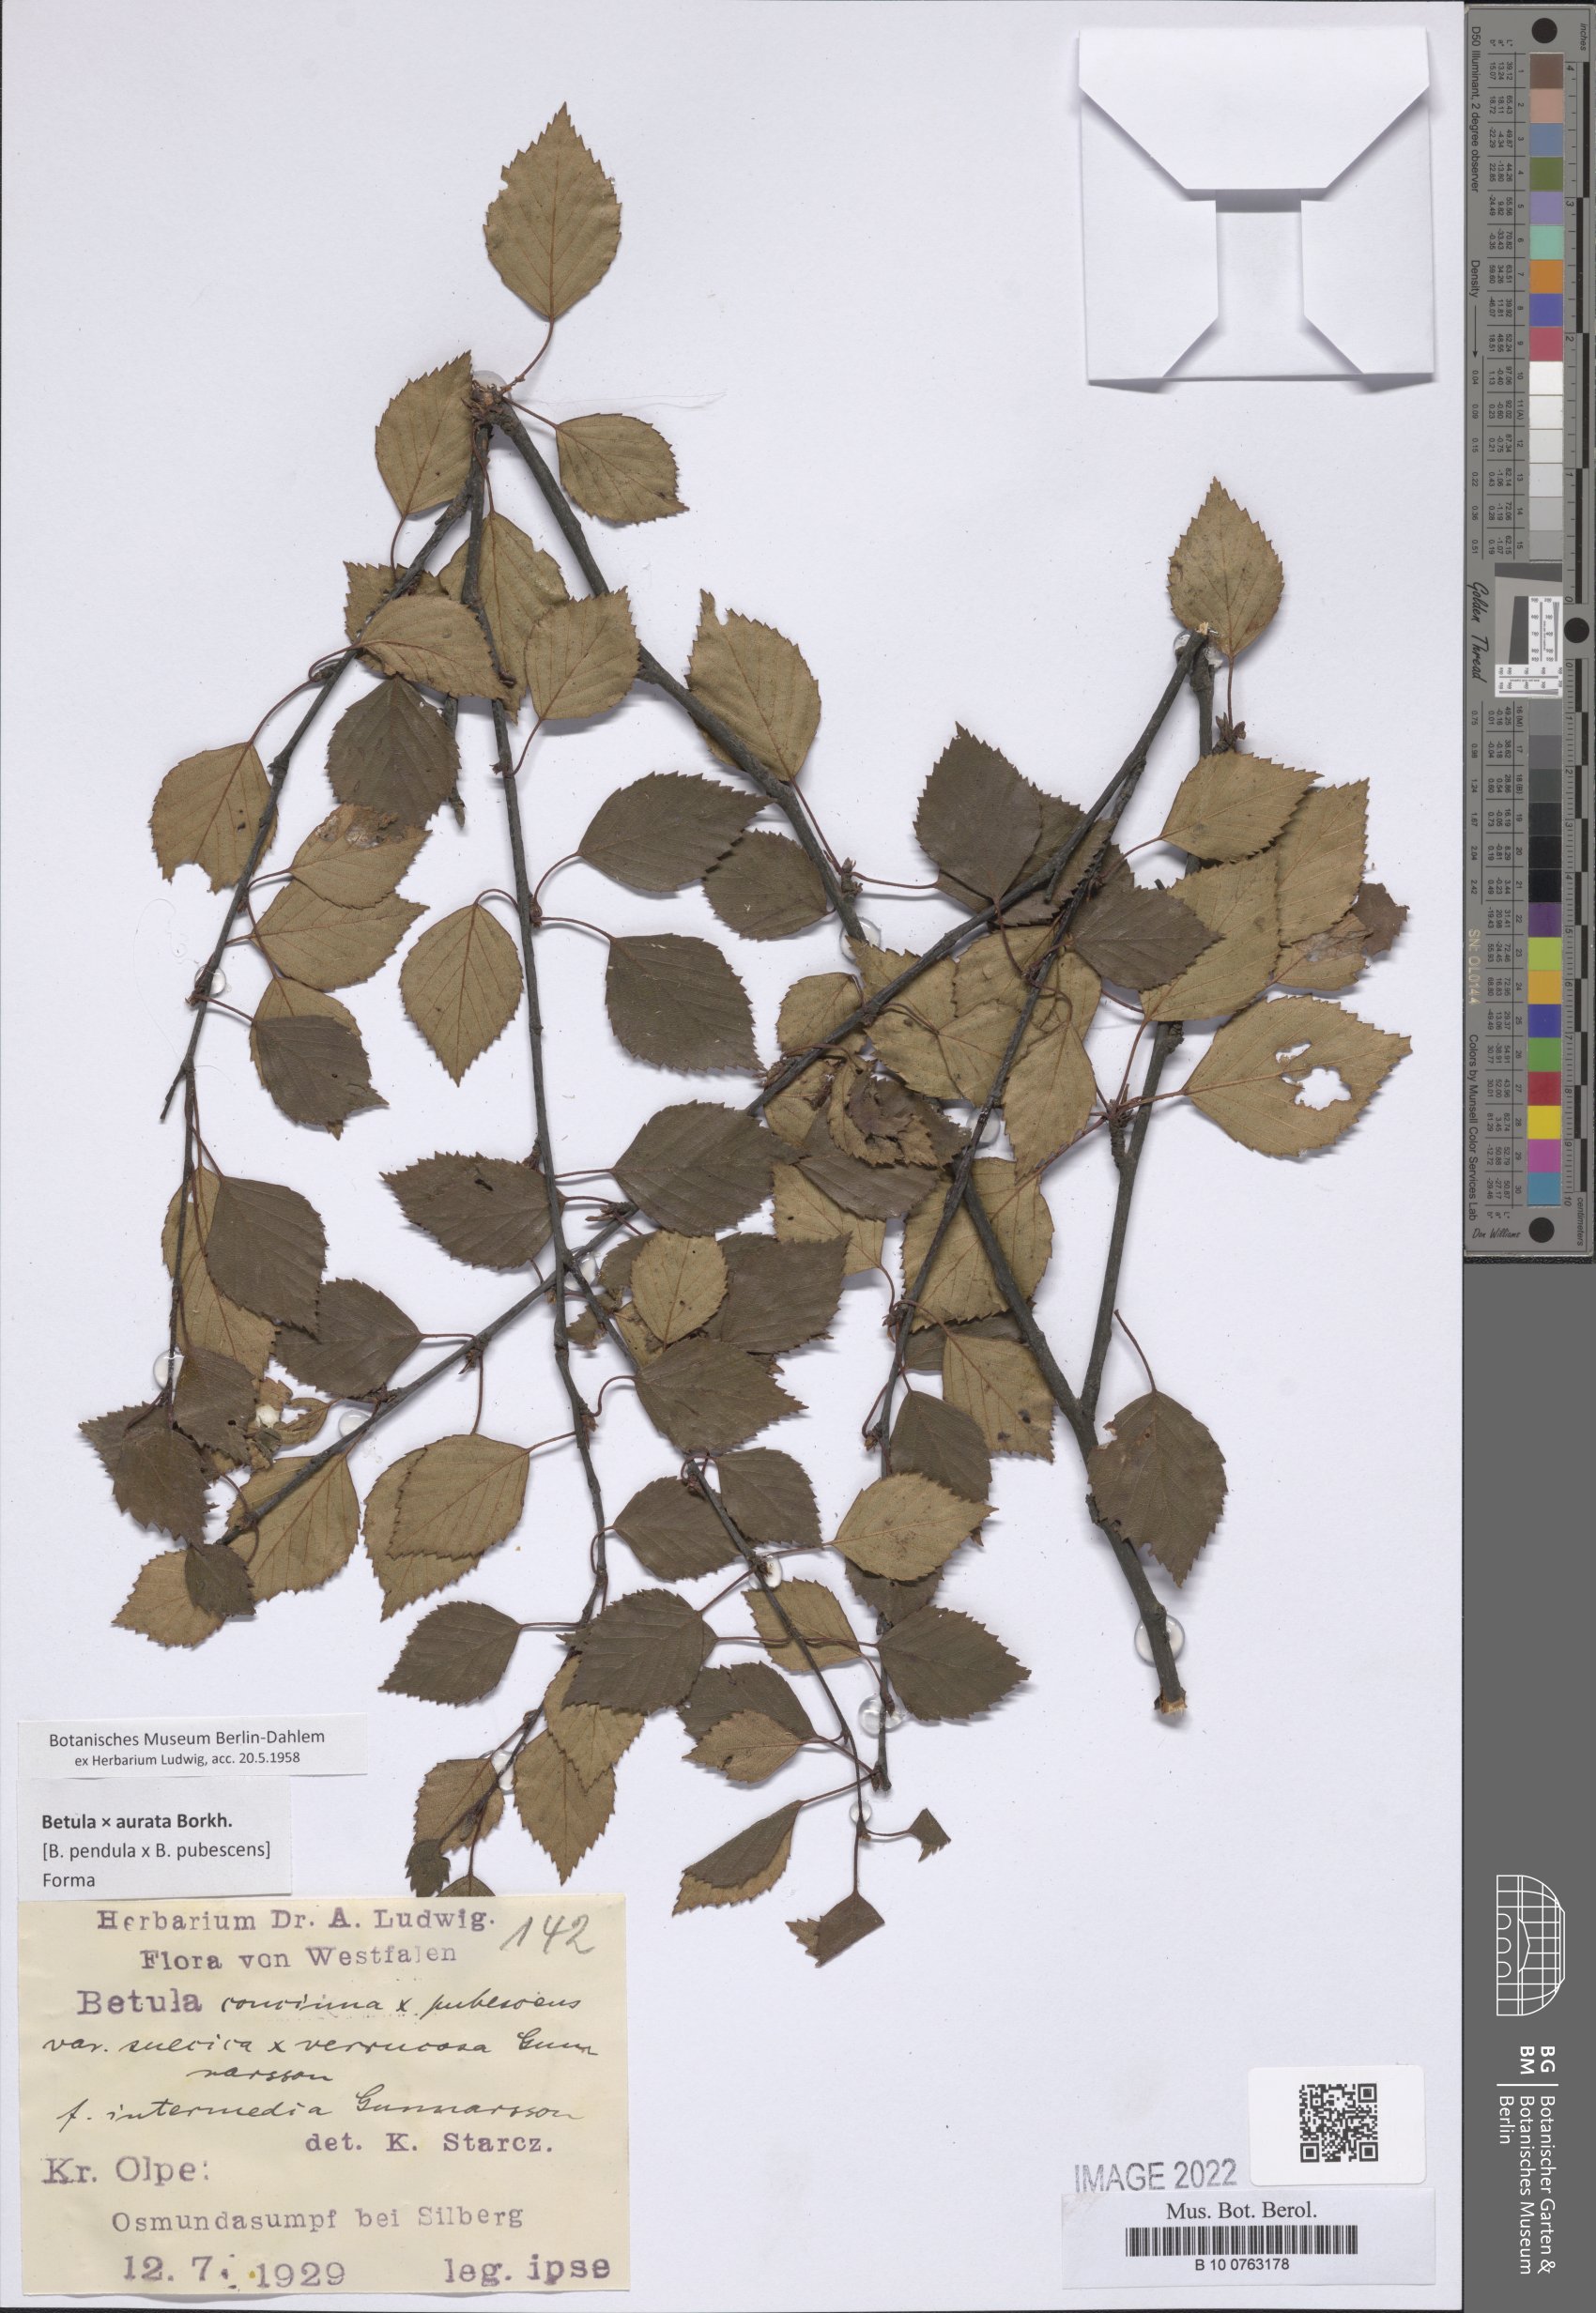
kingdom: Plantae
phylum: Tracheophyta
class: Magnoliopsida
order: Asterales
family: Asteraceae
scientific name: Asteraceae
